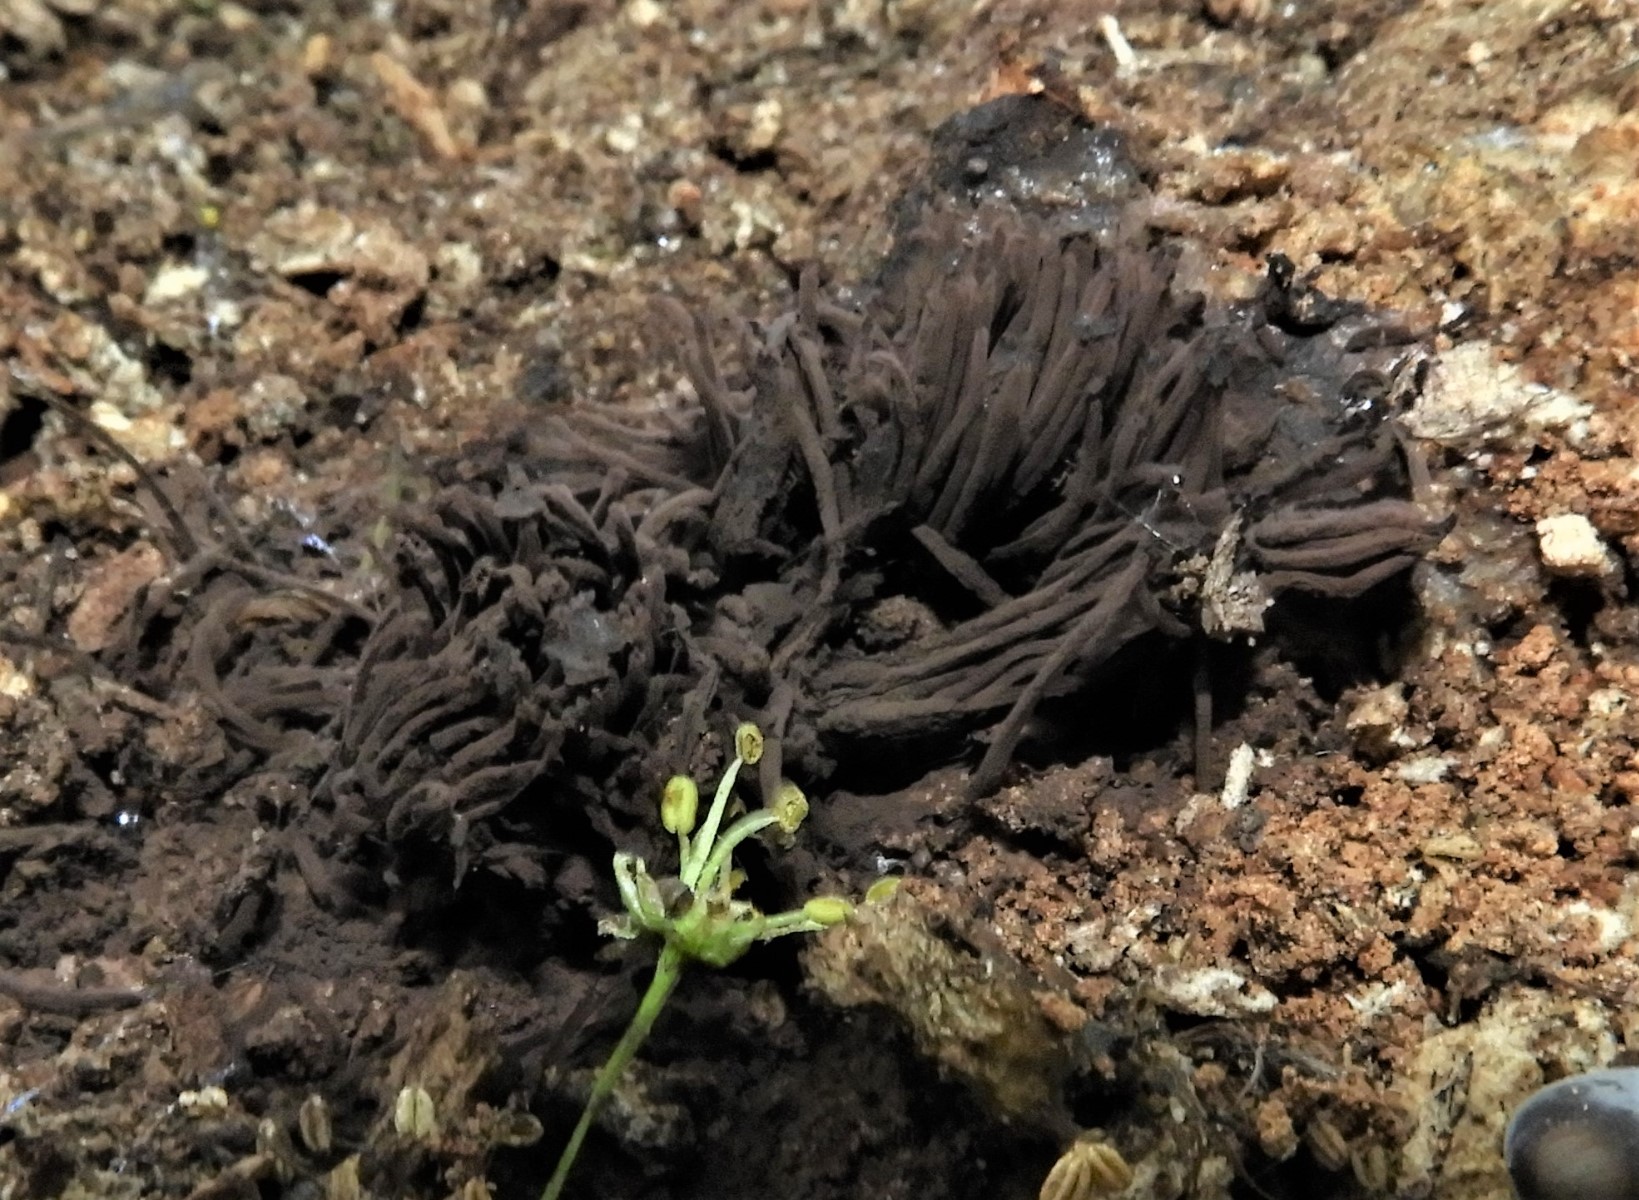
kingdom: Protozoa
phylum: Mycetozoa
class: Myxomycetes
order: Stemonitidales
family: Stemonitidaceae
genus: Stemonitis
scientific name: Stemonitis fusca
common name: sodbrun støvkølle
